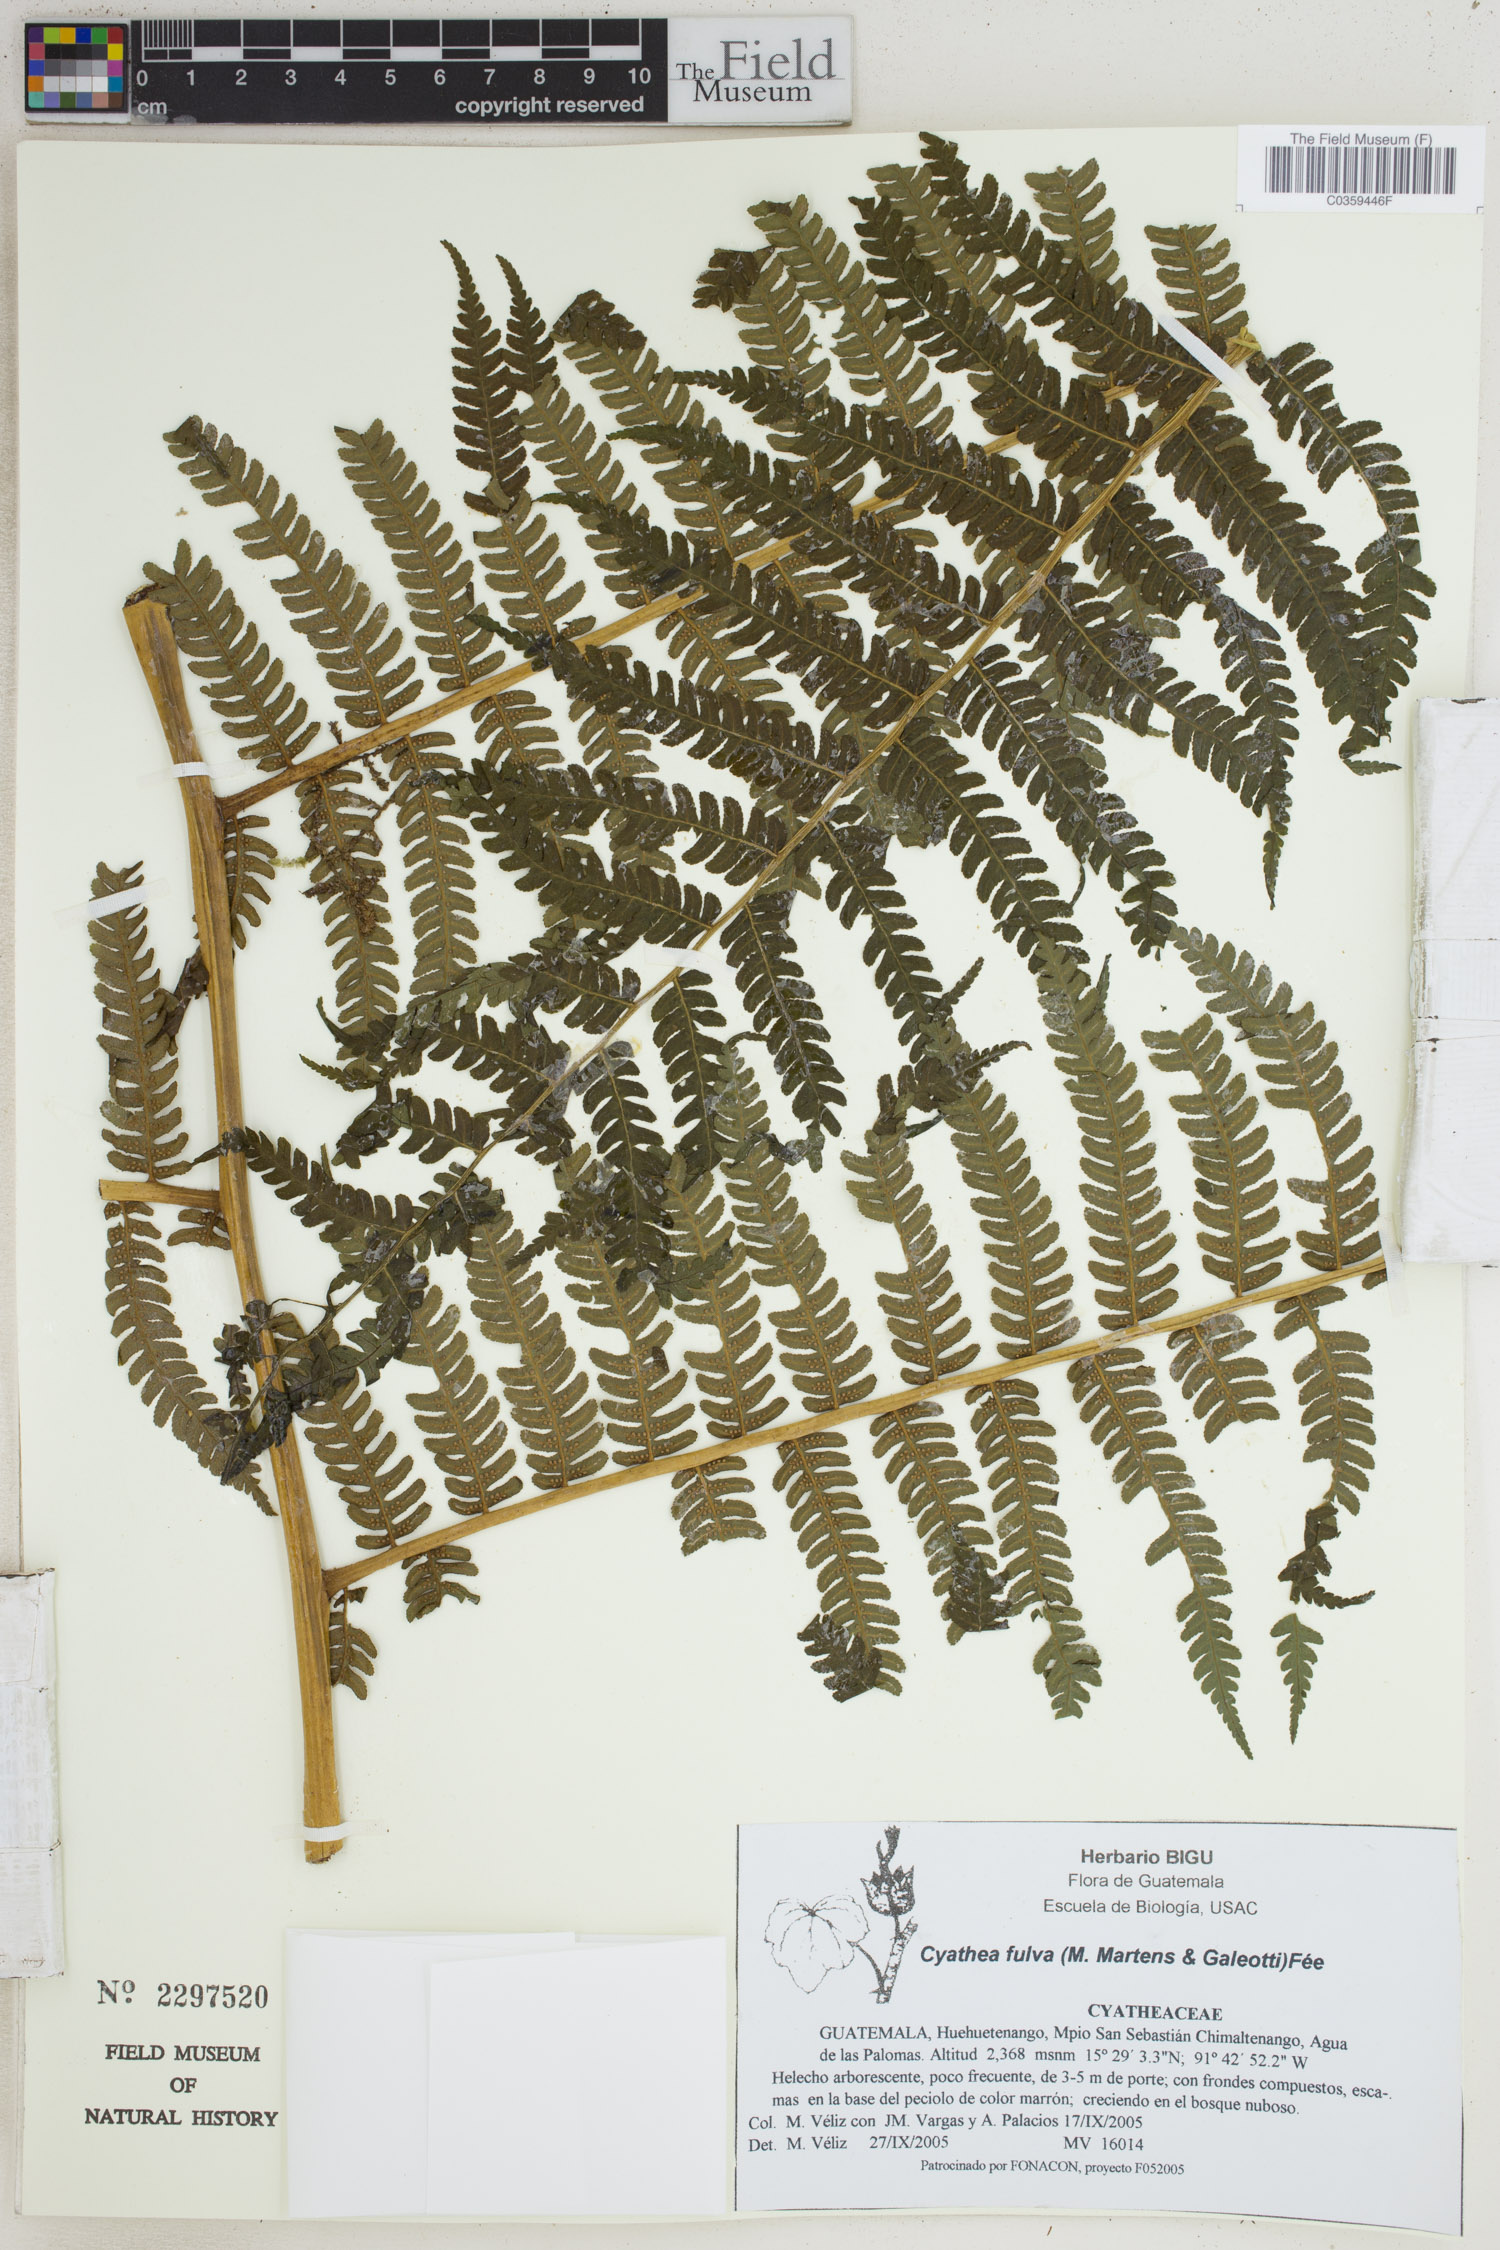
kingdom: Plantae
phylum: Tracheophyta
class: Polypodiopsida
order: Cyatheales
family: Cyatheaceae
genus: Cyathea
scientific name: Cyathea fulva
